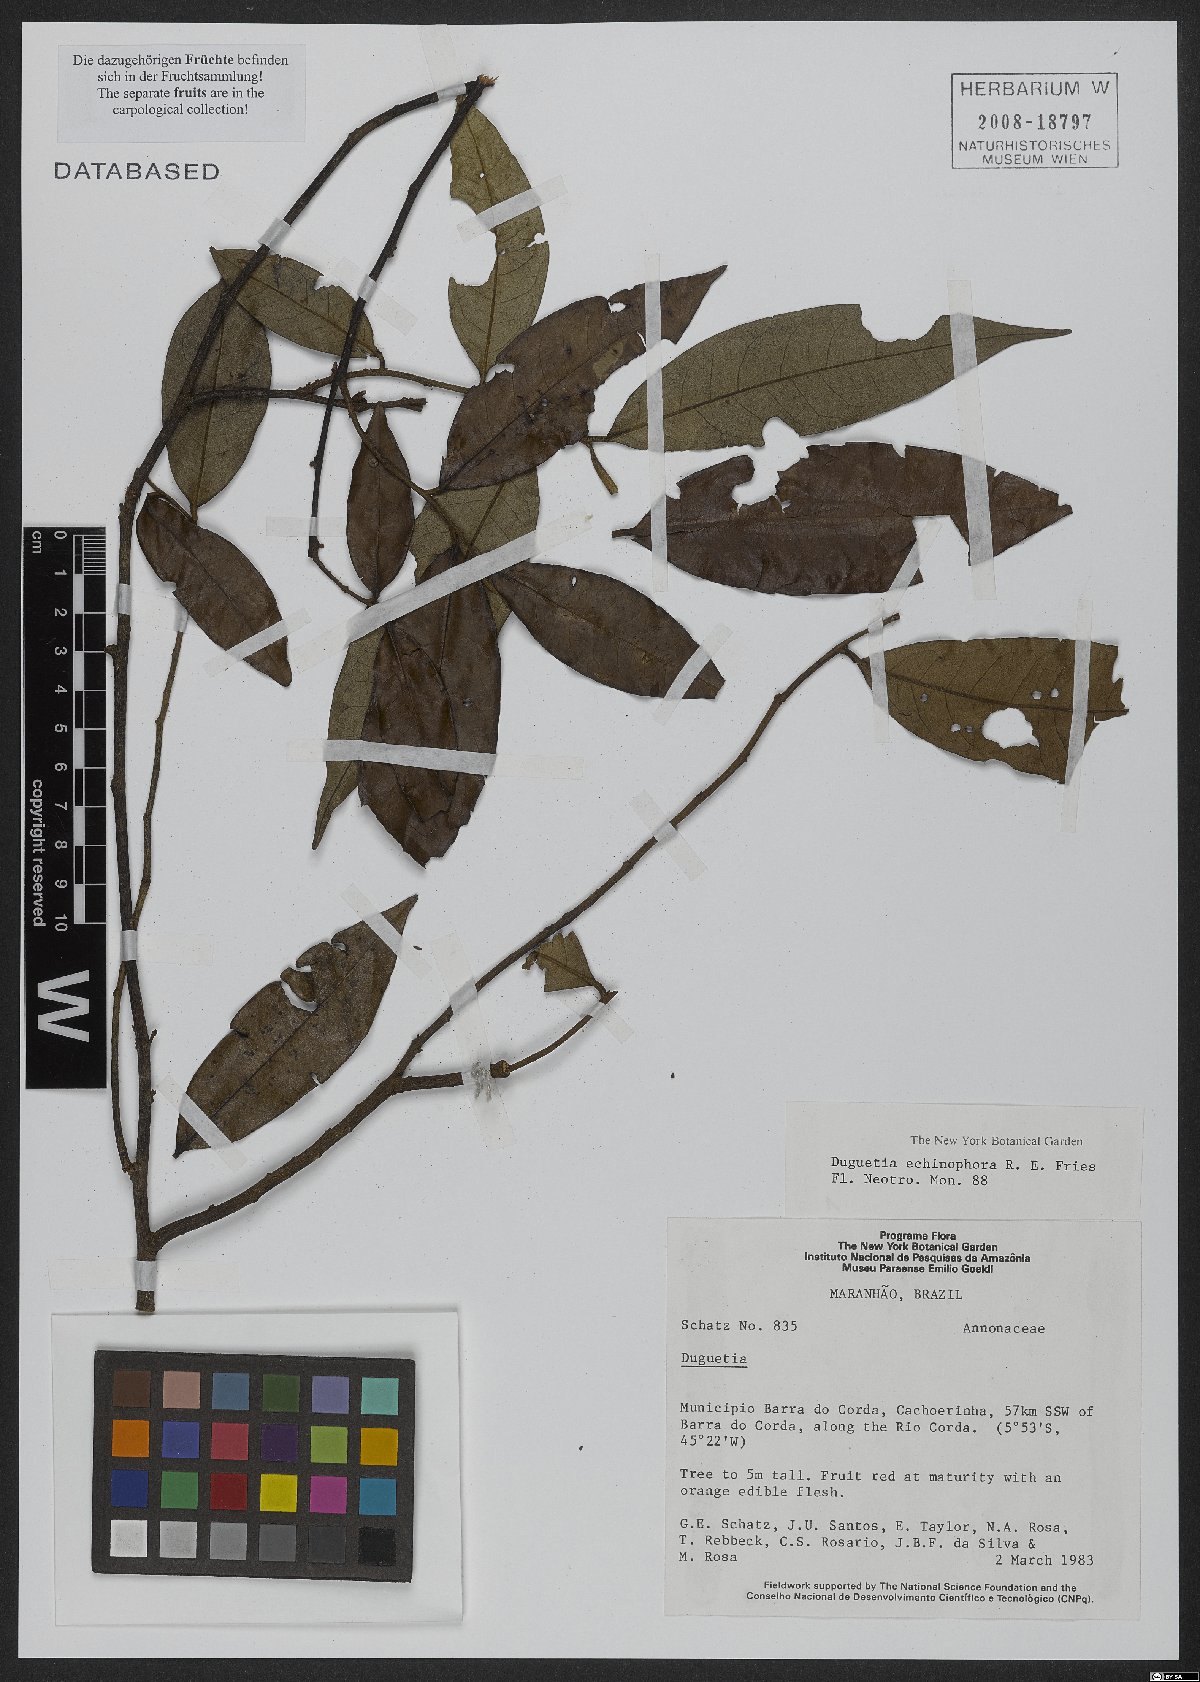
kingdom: Plantae
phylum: Tracheophyta
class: Magnoliopsida
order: Magnoliales
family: Annonaceae
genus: Duguetia
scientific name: Duguetia echinophora
